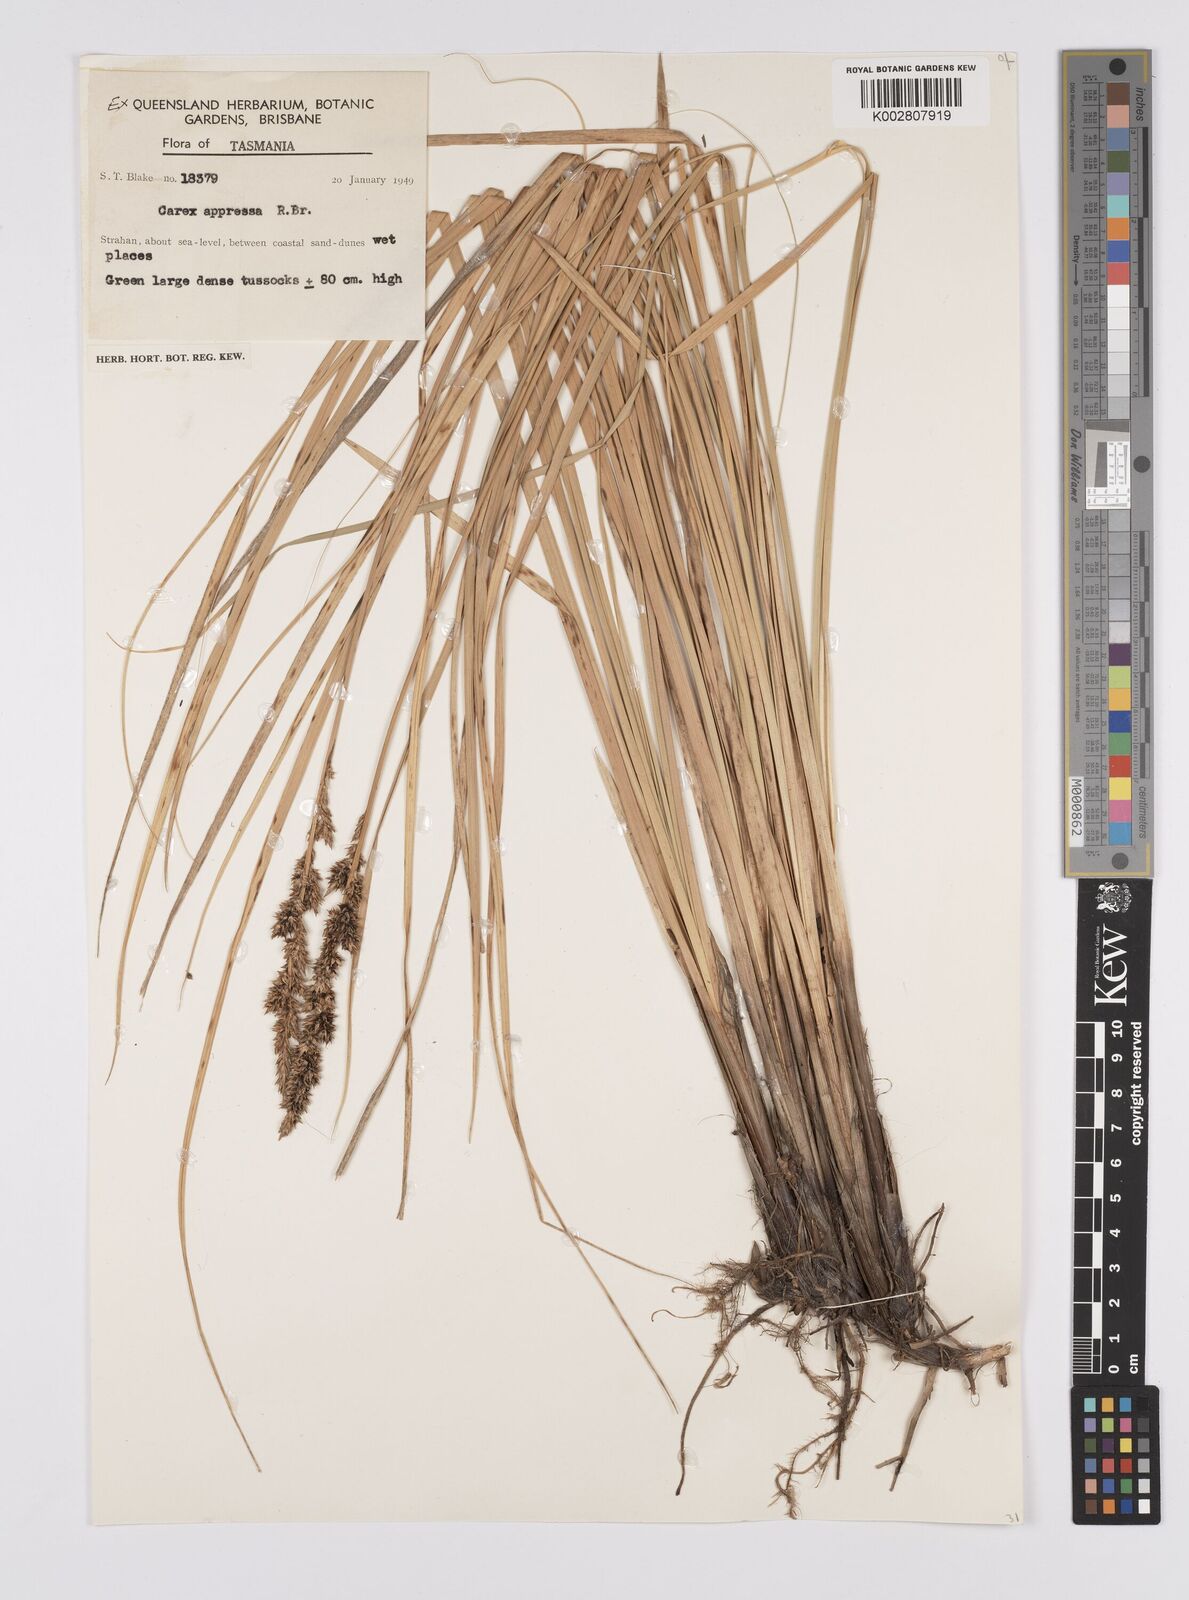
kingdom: Plantae
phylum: Tracheophyta
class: Liliopsida
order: Poales
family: Cyperaceae
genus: Carex
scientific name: Carex appressa
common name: Tussock sedge
